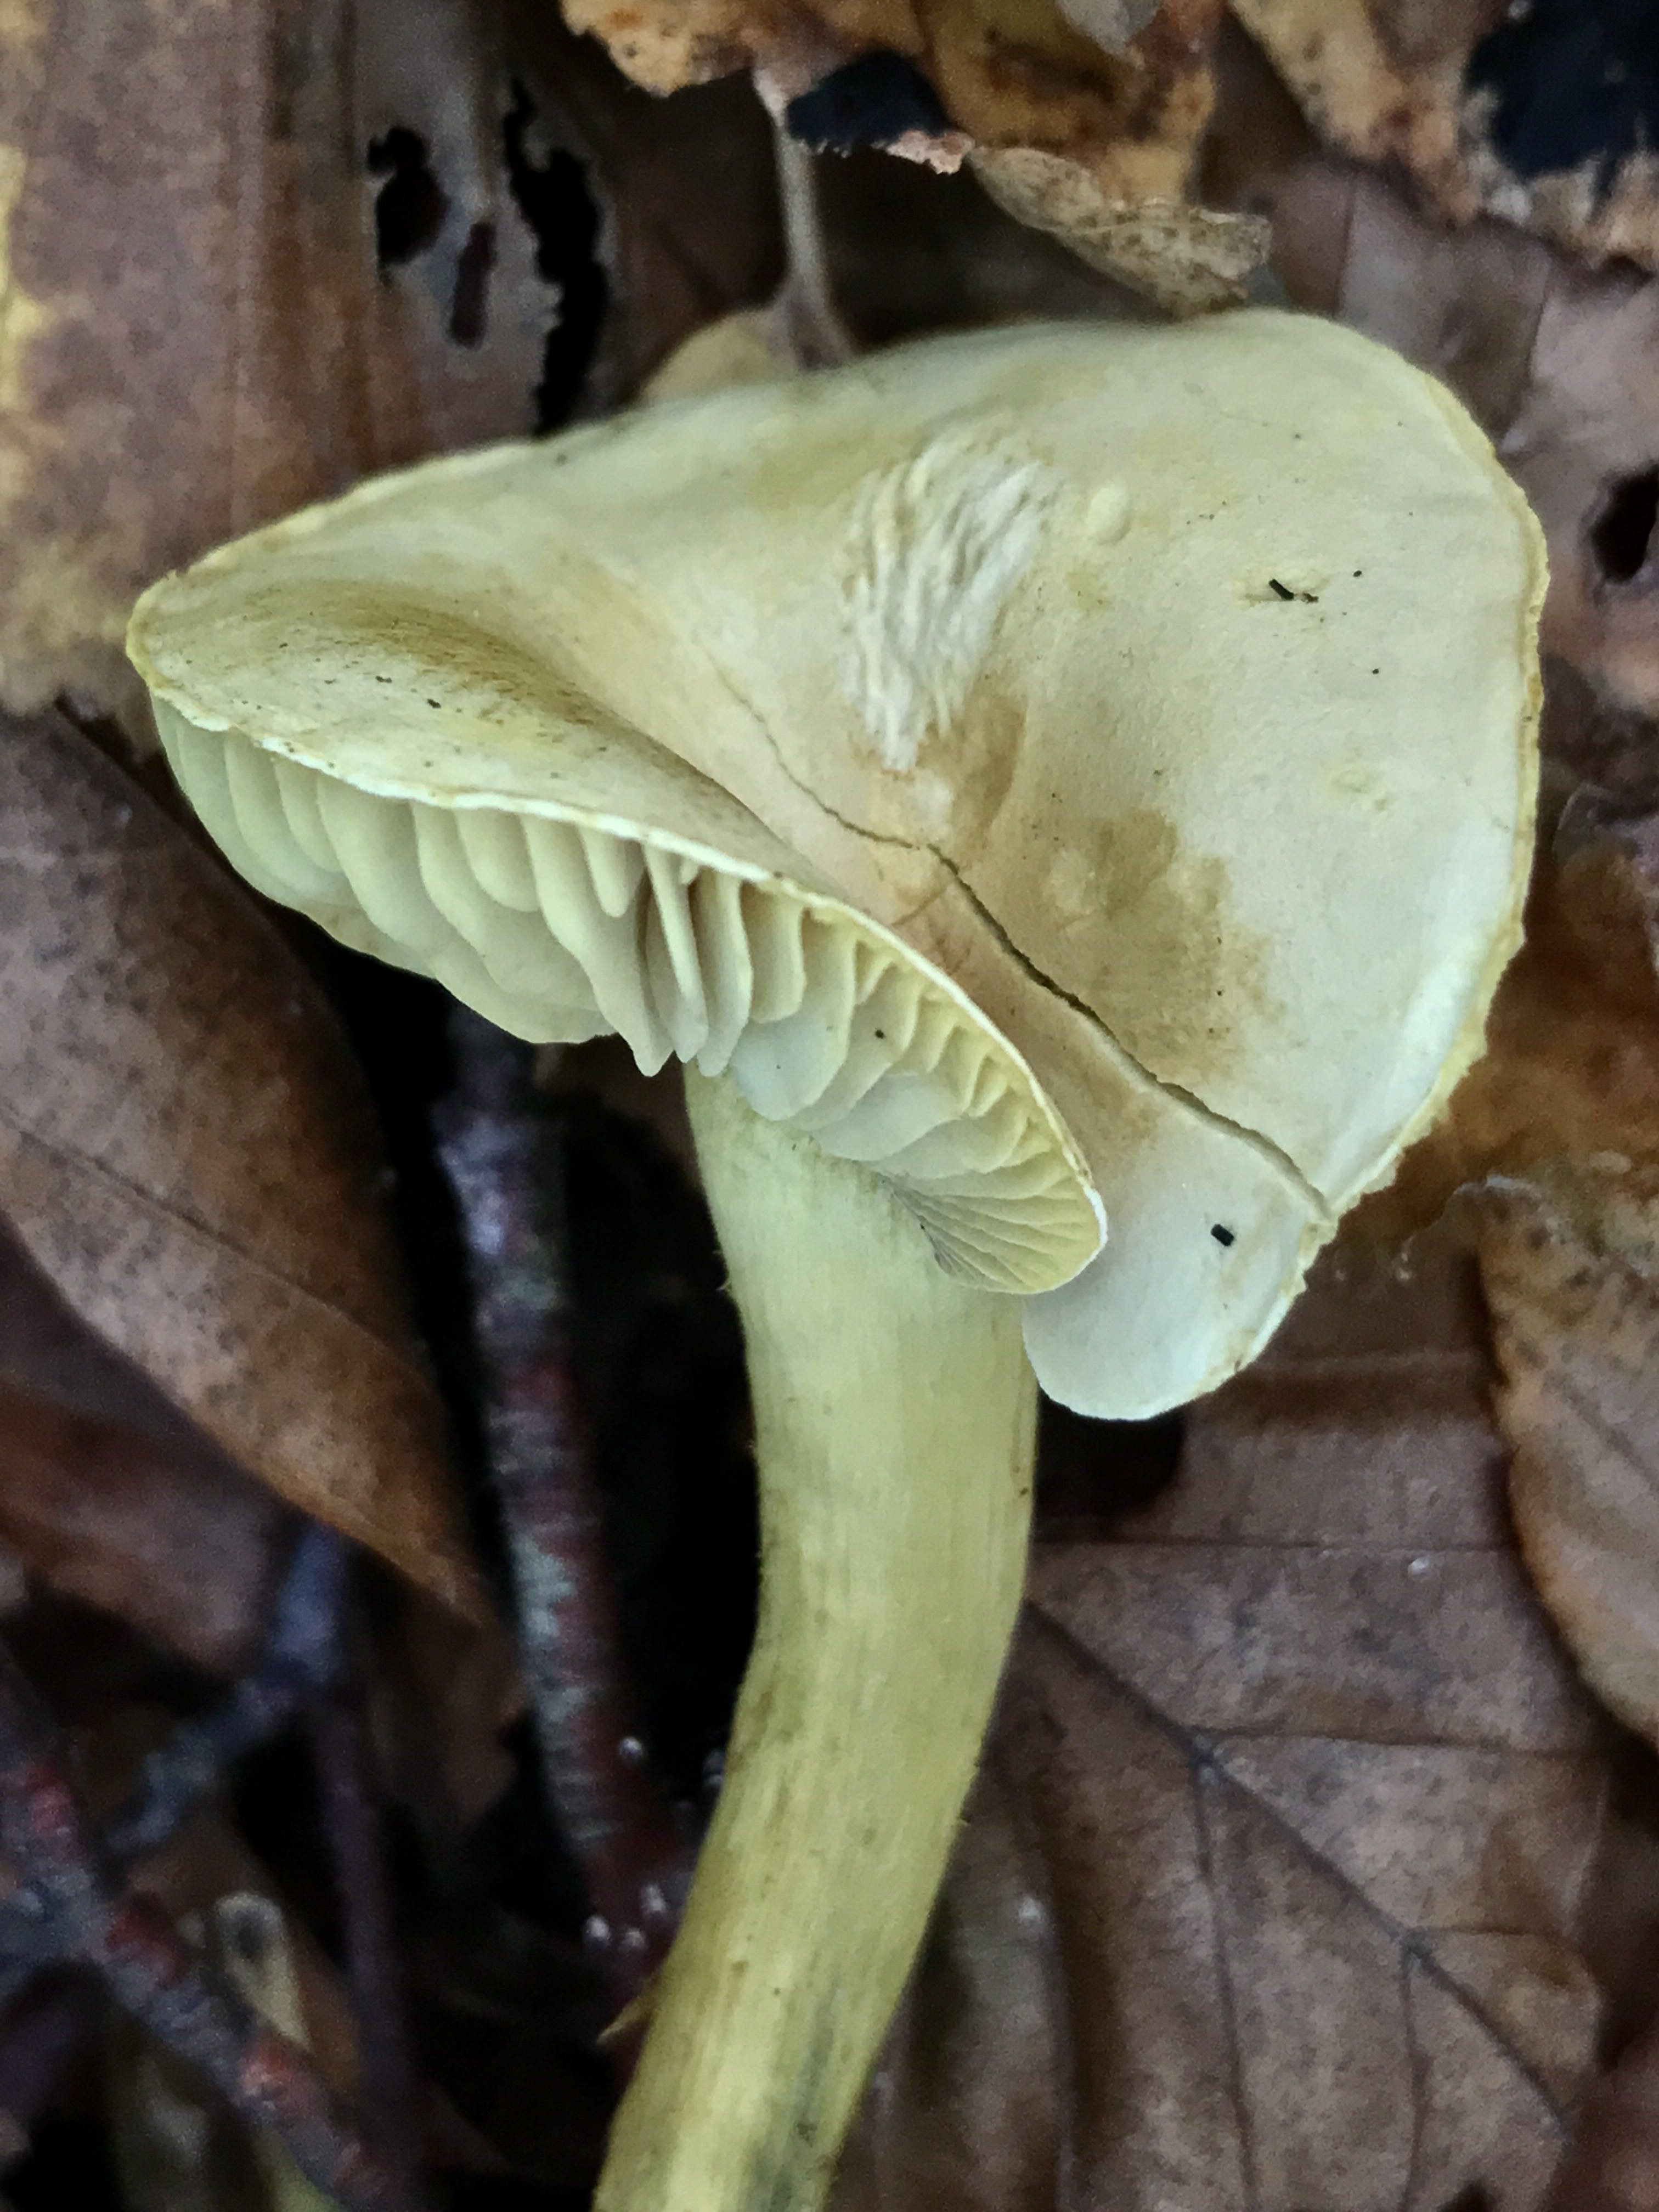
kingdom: Fungi
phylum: Basidiomycota
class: Agaricomycetes
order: Agaricales
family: Tricholomataceae
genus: Tricholoma
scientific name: Tricholoma sulphureum
